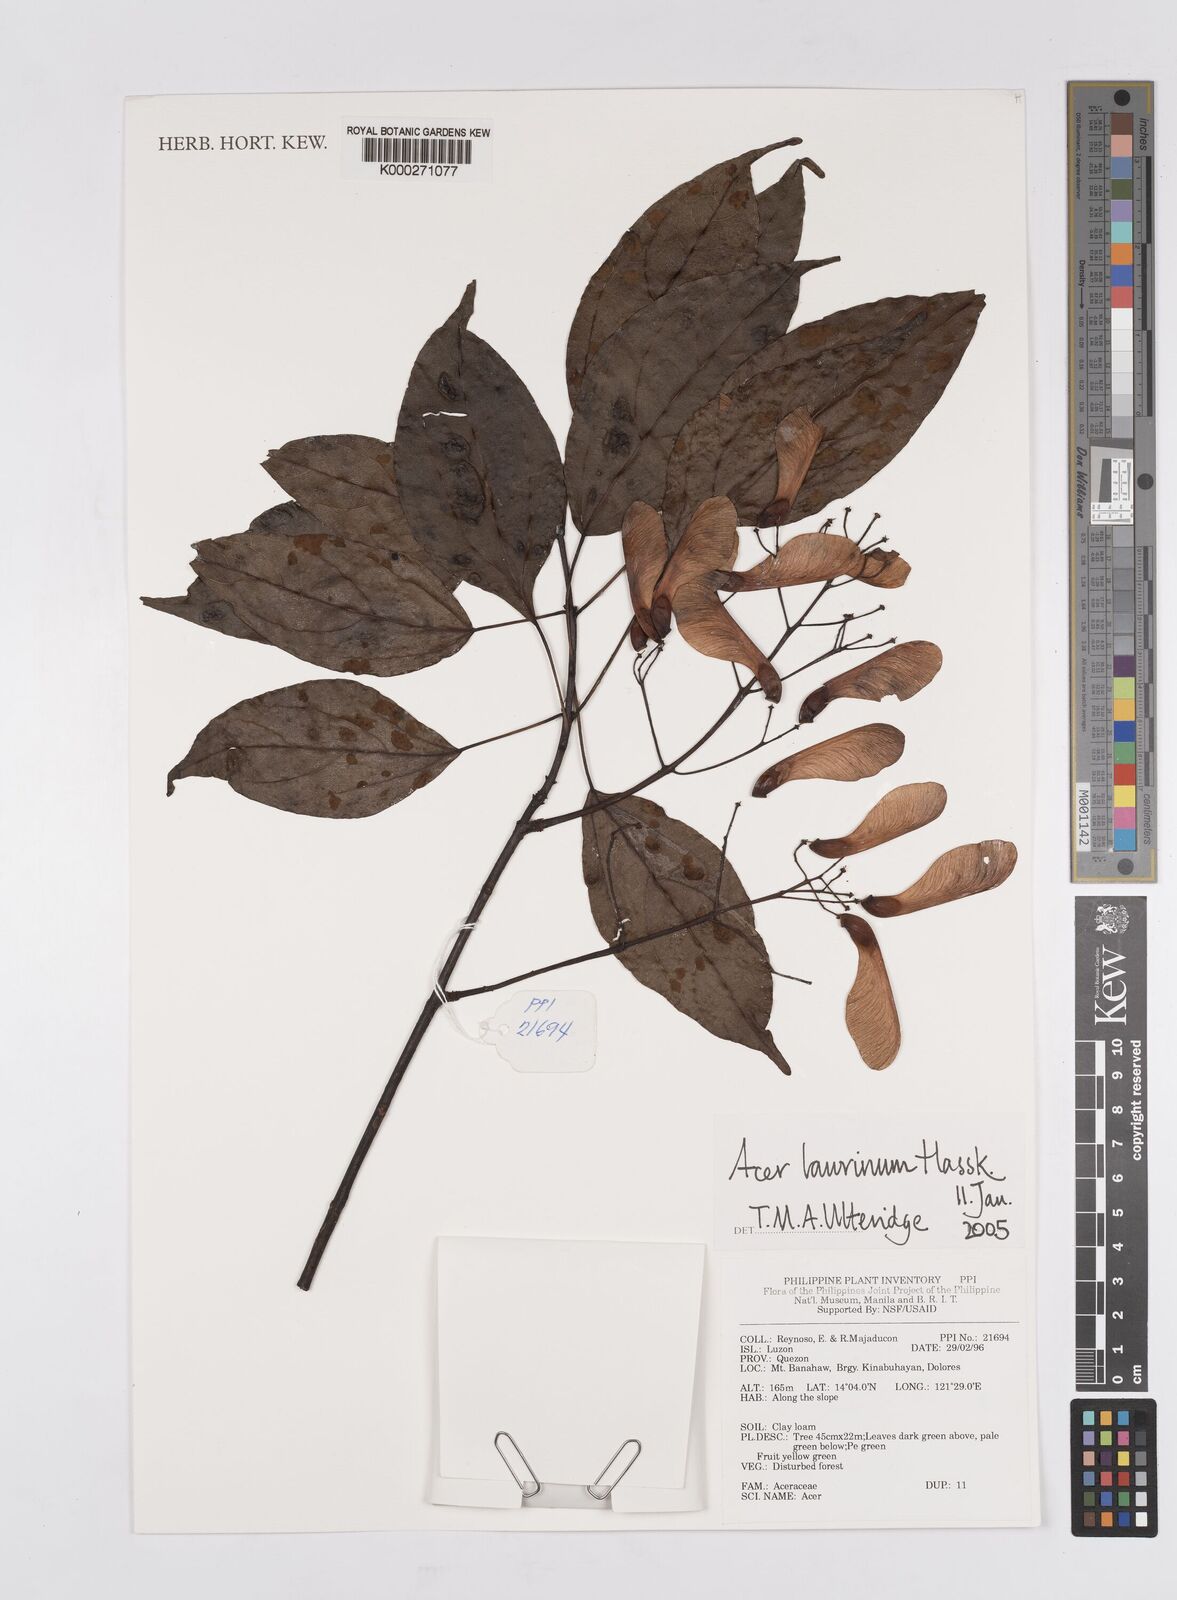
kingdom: Plantae
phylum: Tracheophyta
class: Magnoliopsida
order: Sapindales
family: Sapindaceae
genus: Acer
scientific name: Acer laurinum
